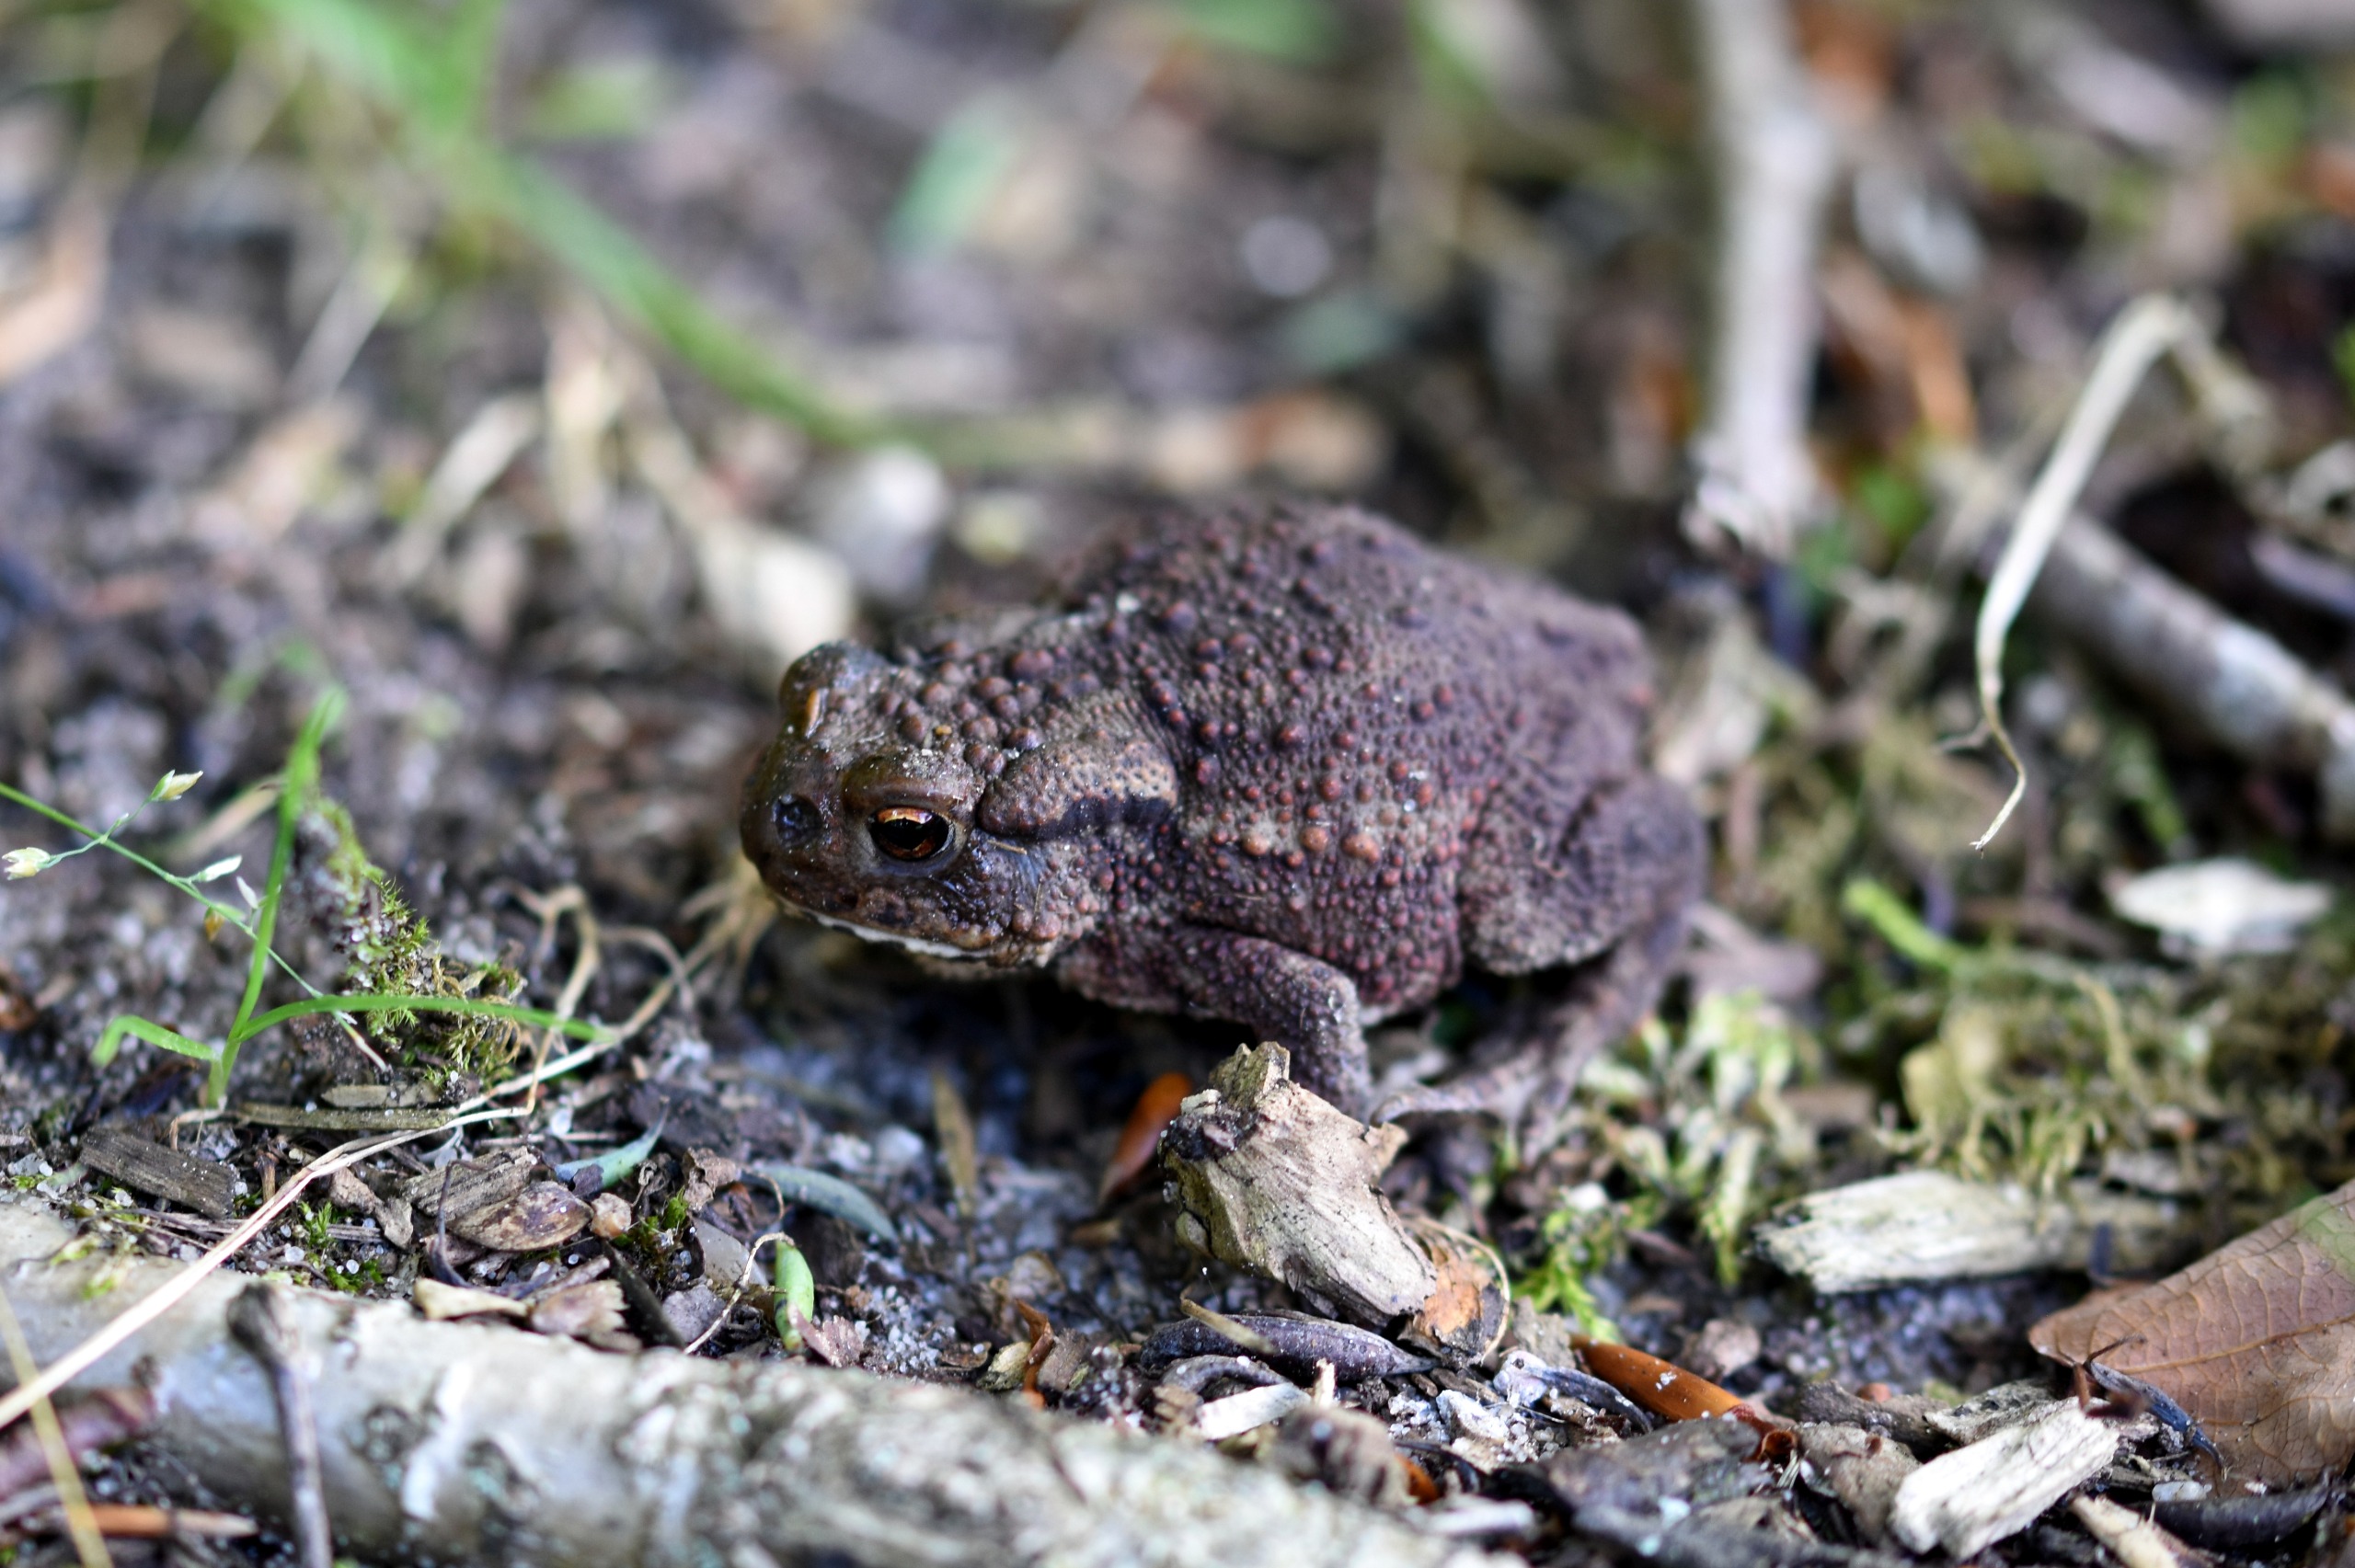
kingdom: Animalia
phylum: Chordata
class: Amphibia
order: Anura
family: Bufonidae
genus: Bufo
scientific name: Bufo bufo
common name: Skrubtudse
